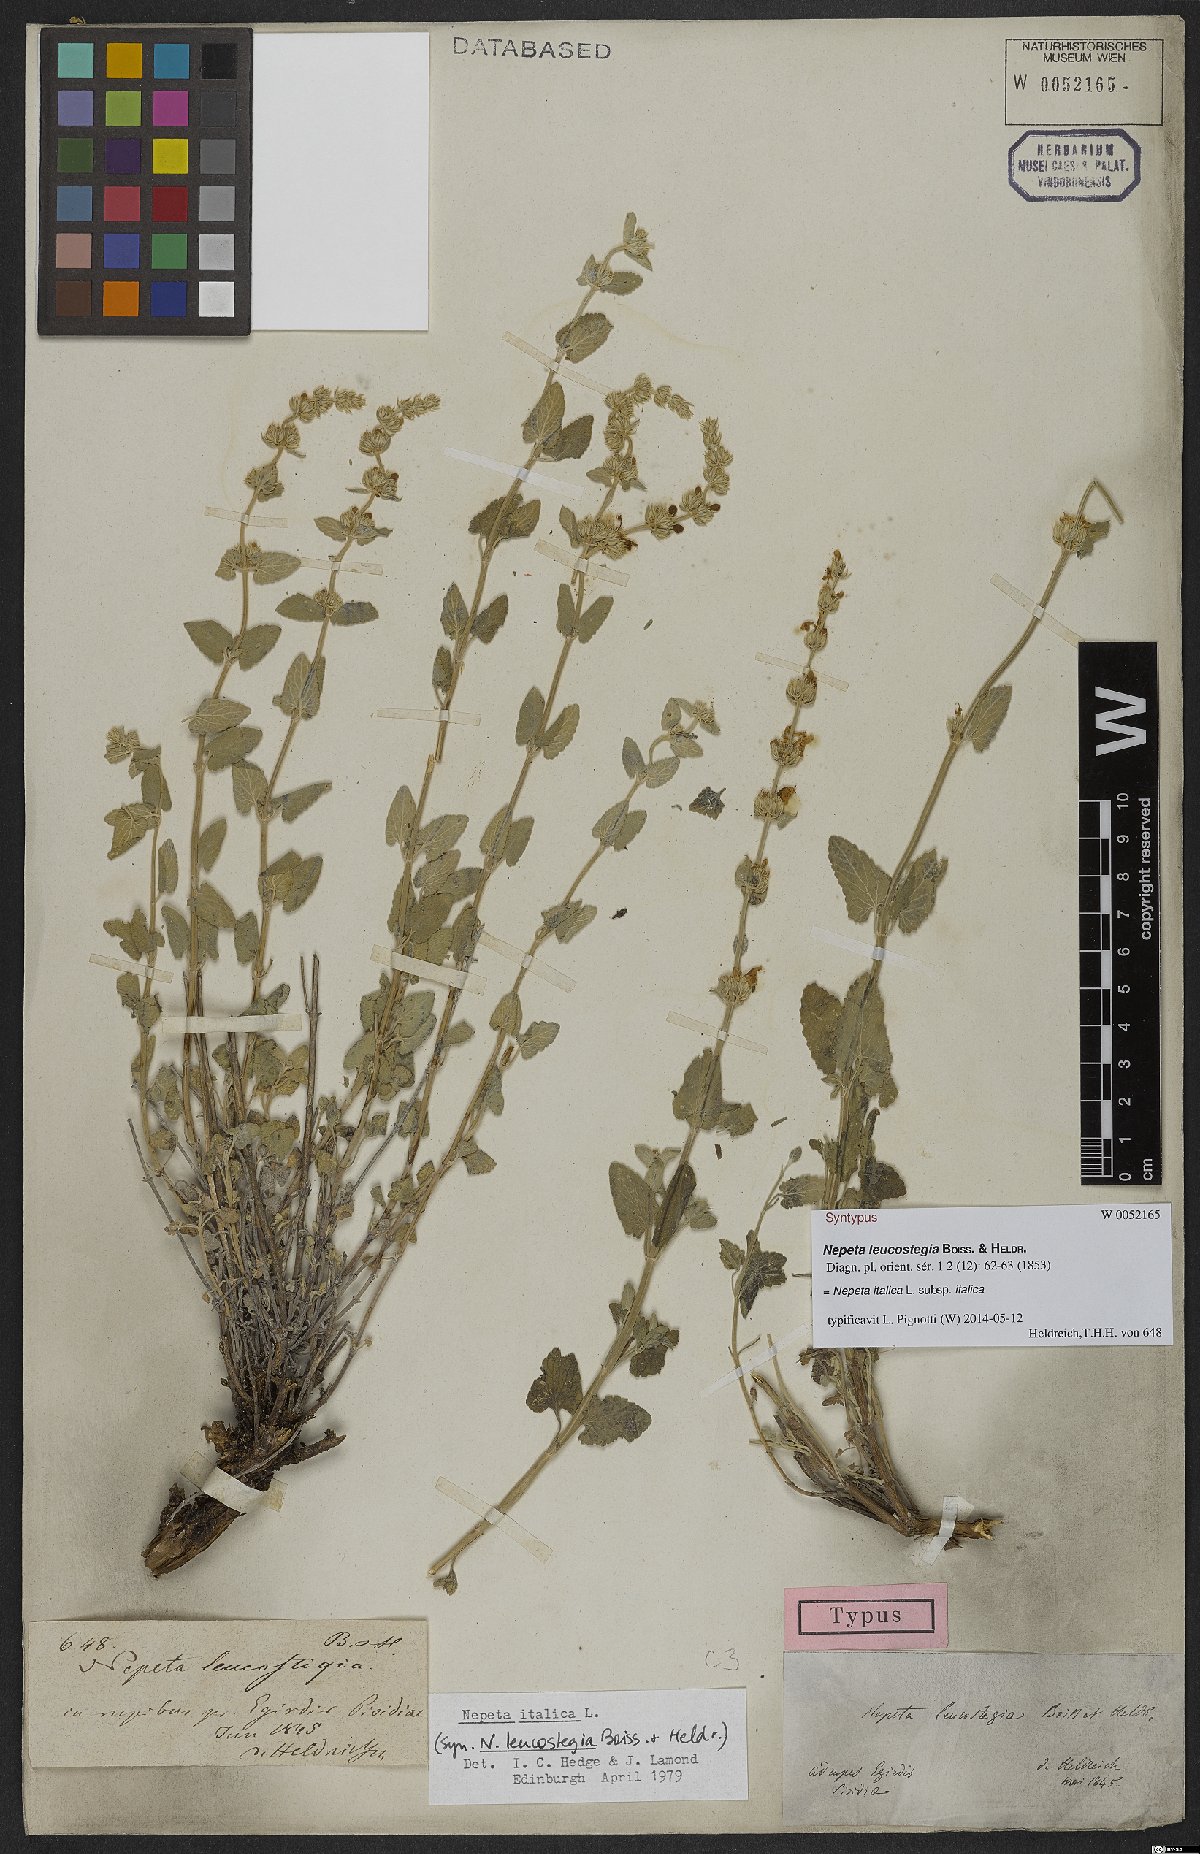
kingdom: Plantae
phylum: Tracheophyta
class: Magnoliopsida
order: Lamiales
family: Lamiaceae
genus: Nepeta
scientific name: Nepeta italica
